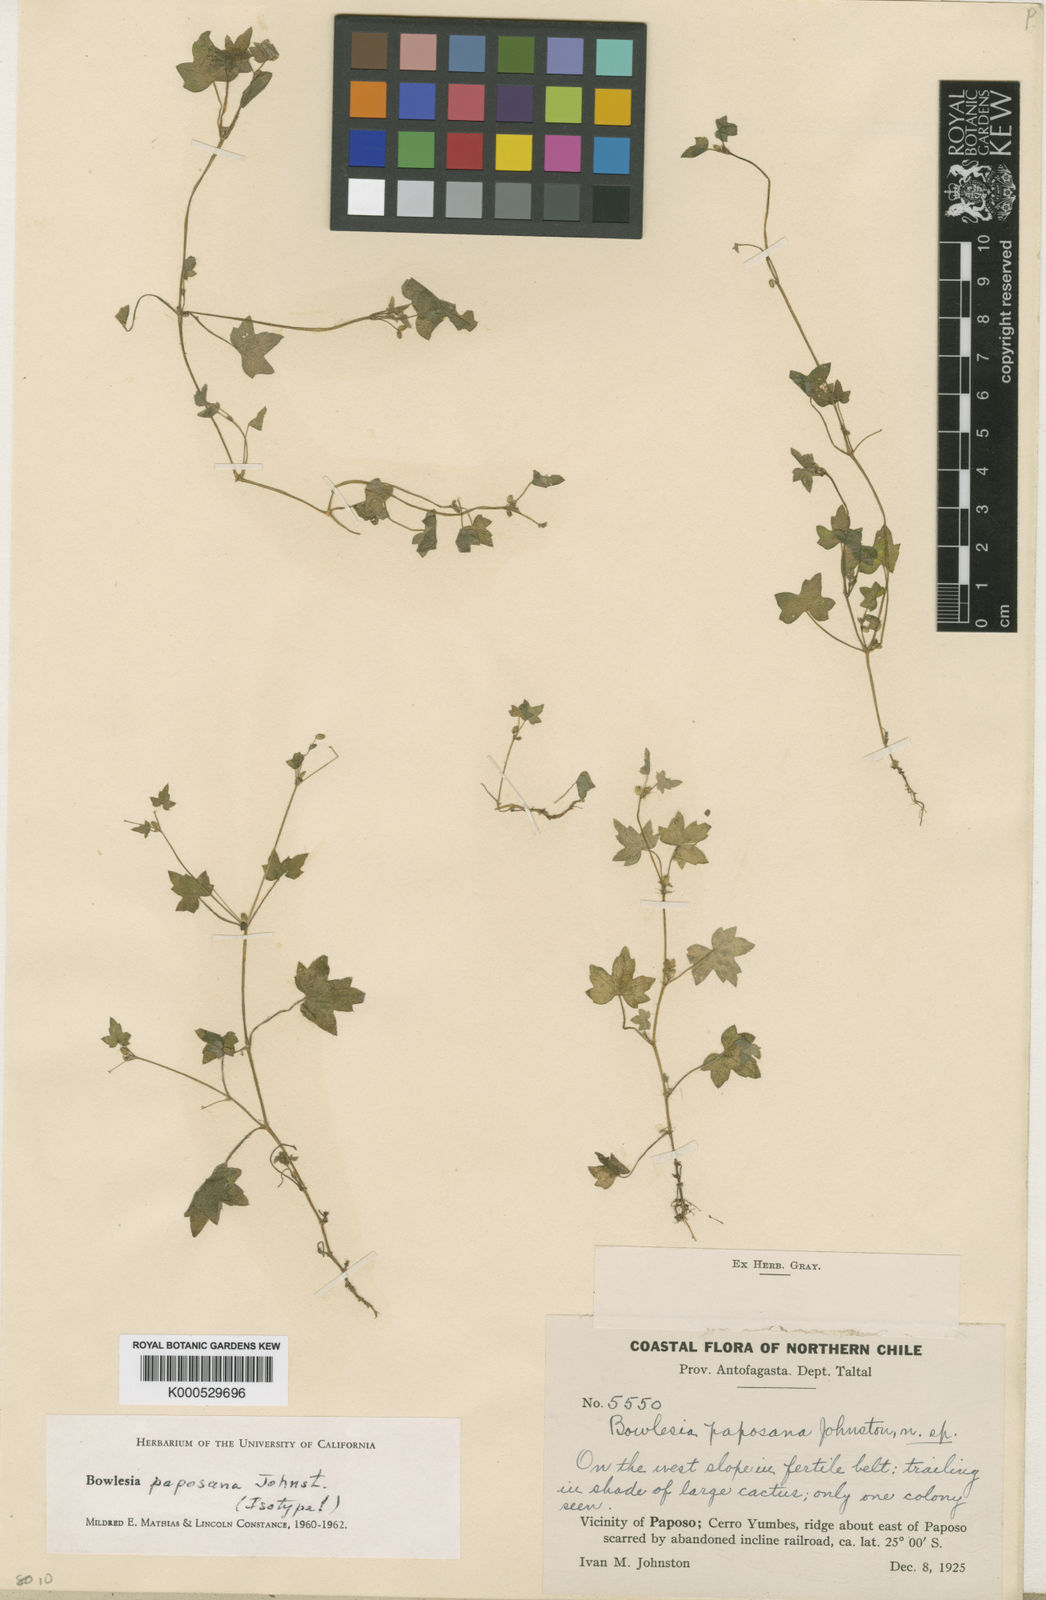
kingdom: Plantae
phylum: Tracheophyta
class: Magnoliopsida
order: Apiales
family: Apiaceae
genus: Bowlesia
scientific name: Bowlesia paposana
